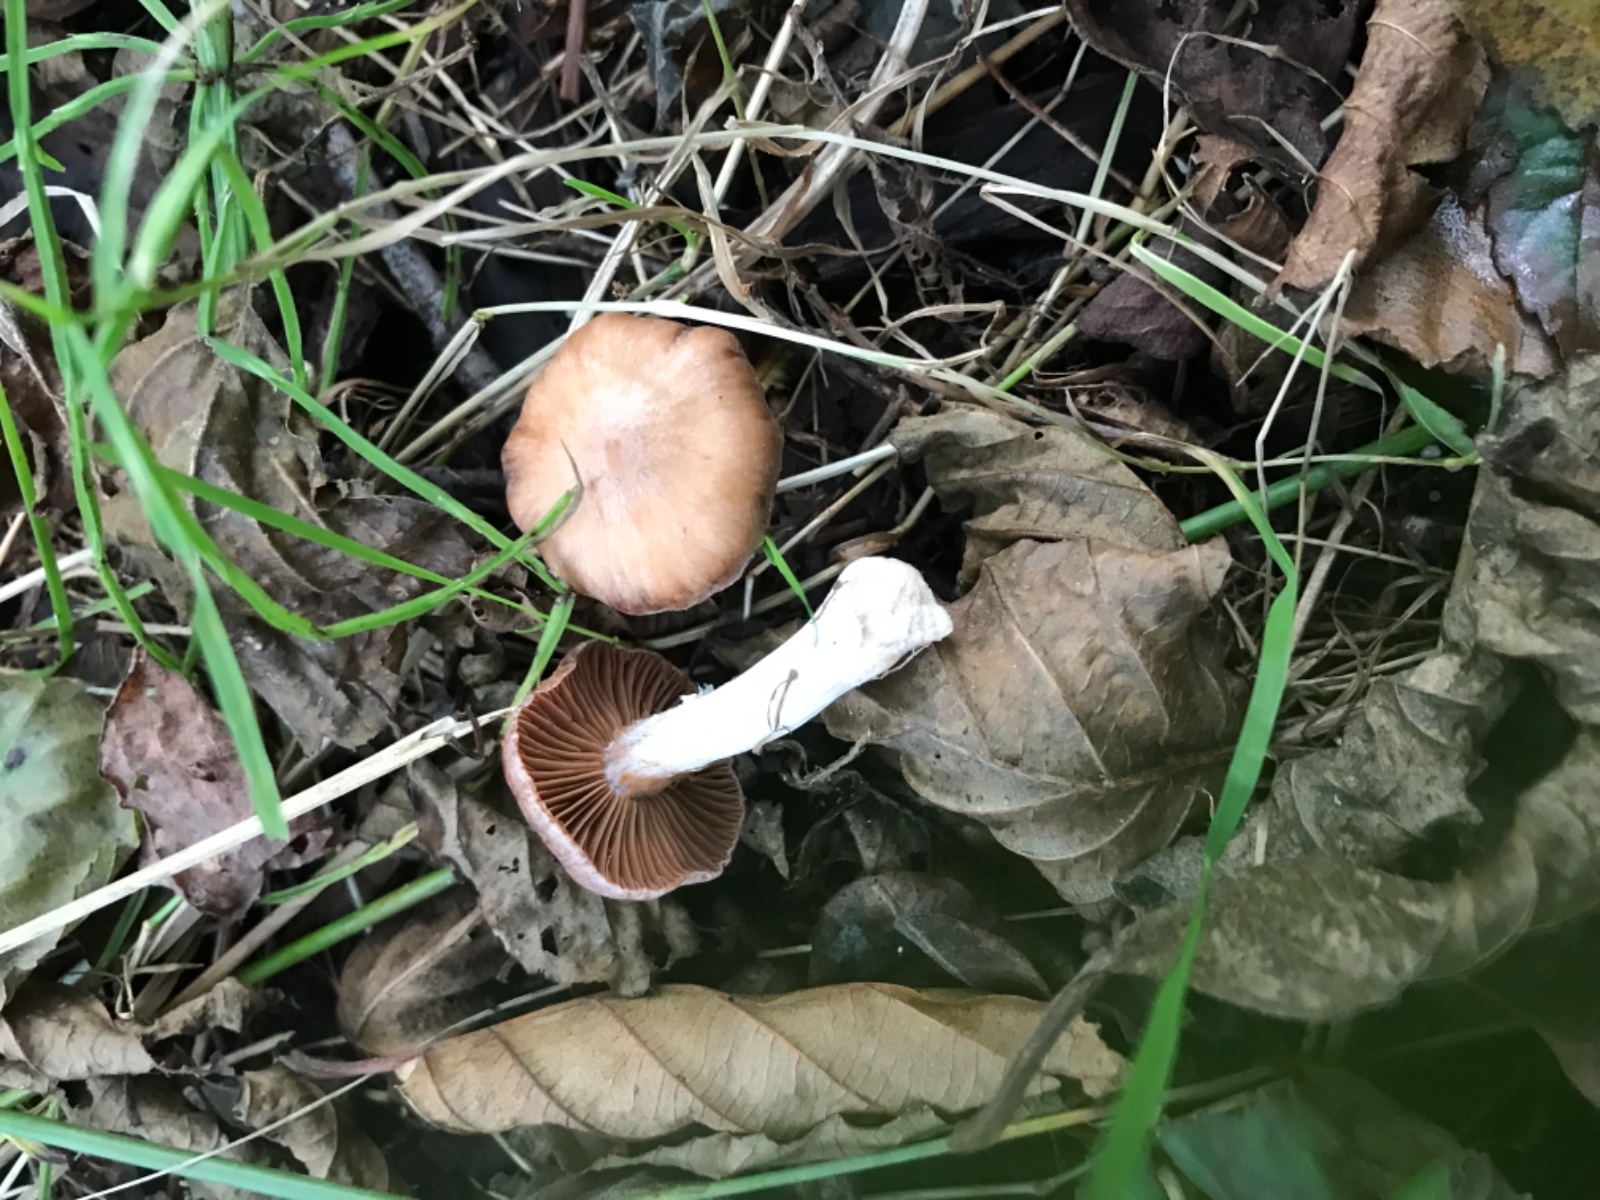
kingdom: Fungi
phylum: Basidiomycota
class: Agaricomycetes
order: Agaricales
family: Cortinariaceae
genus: Cortinarius
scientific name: Cortinarius saturninus
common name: brunviolet slørhat
